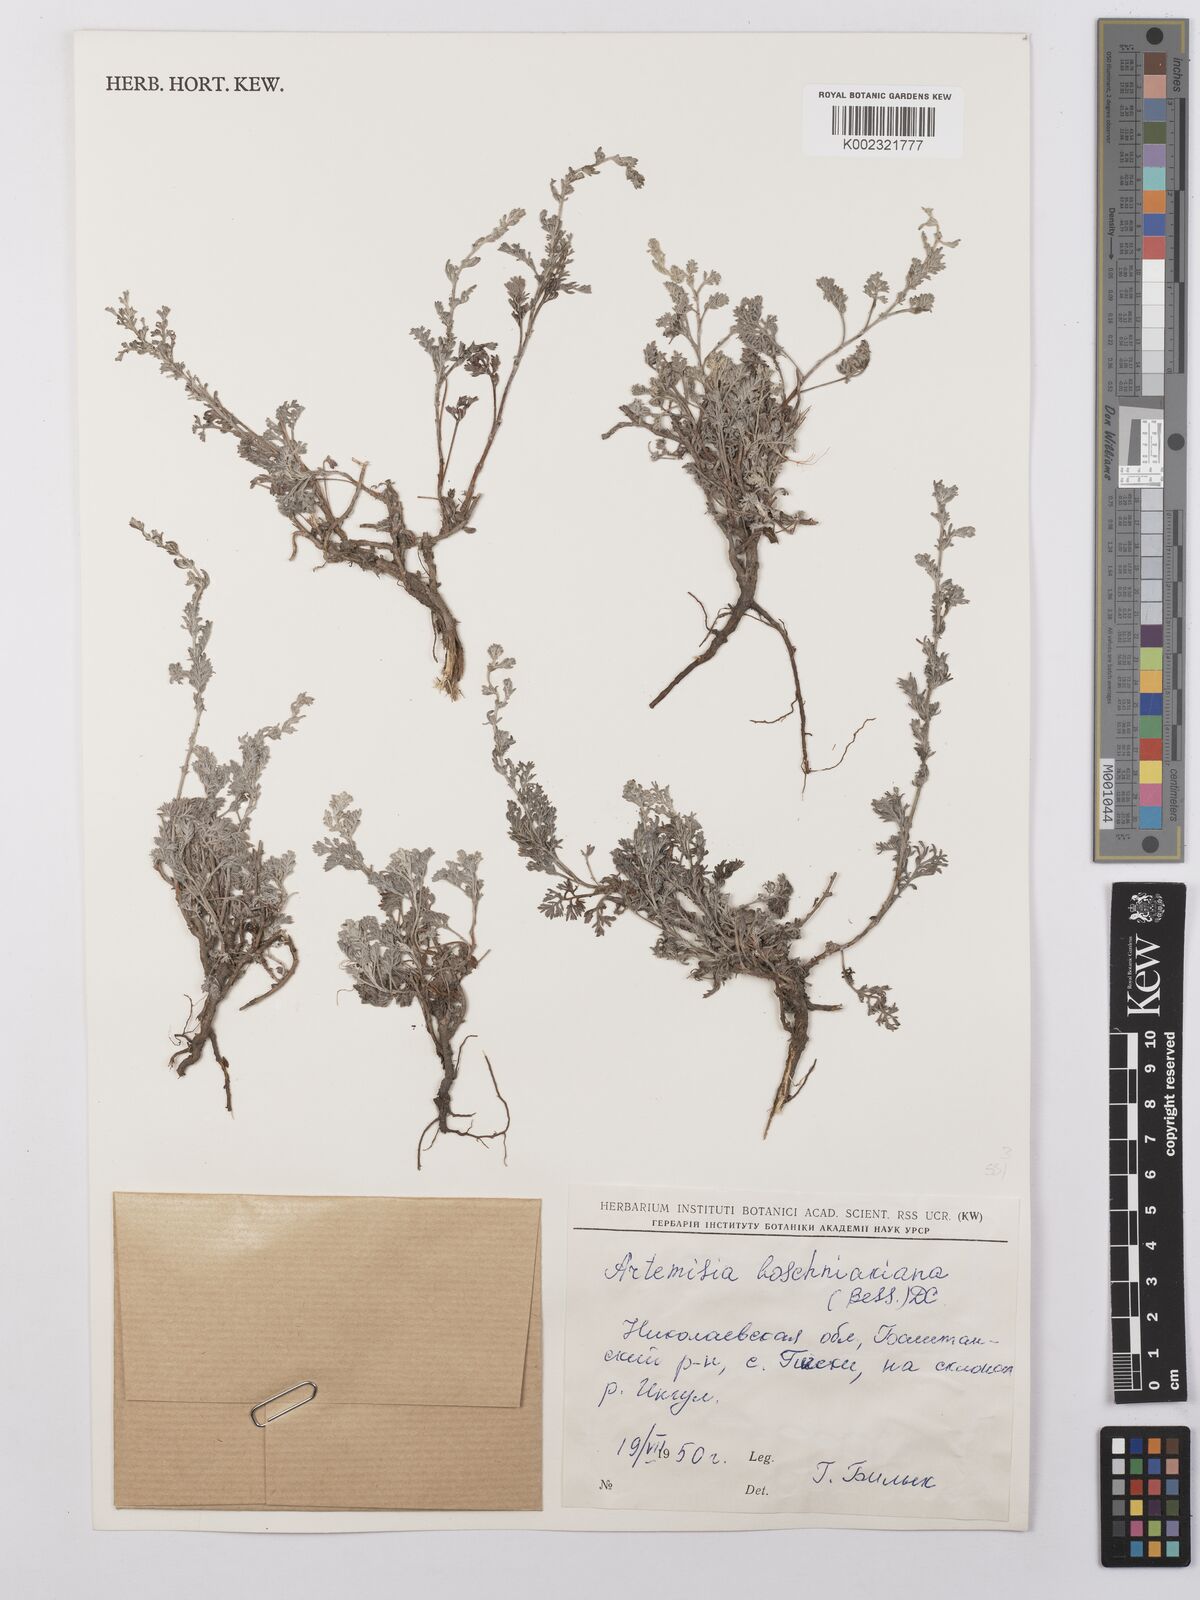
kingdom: Plantae
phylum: Tracheophyta
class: Magnoliopsida
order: Asterales
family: Asteraceae
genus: Artemisia
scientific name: Artemisia santonicum
